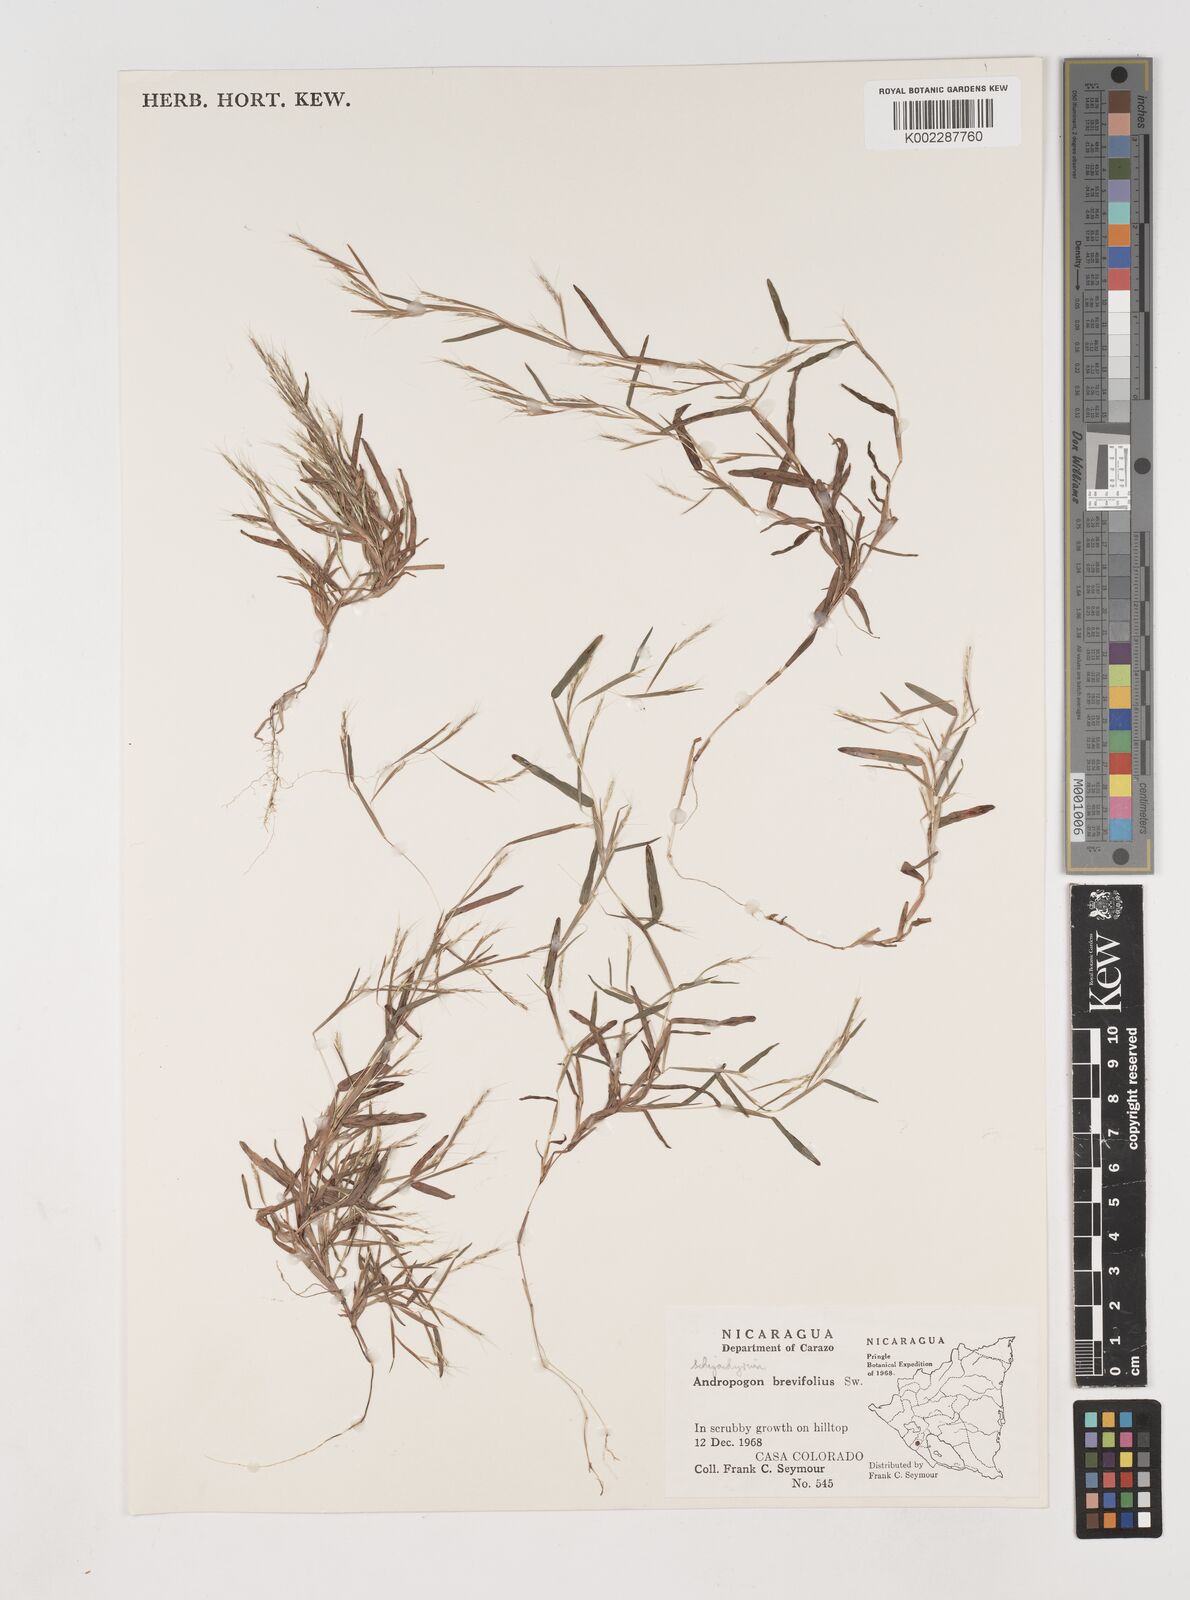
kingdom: Plantae
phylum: Tracheophyta
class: Liliopsida
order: Poales
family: Poaceae
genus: Schizachyrium
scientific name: Schizachyrium brevifolium
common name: Serillo dulce
